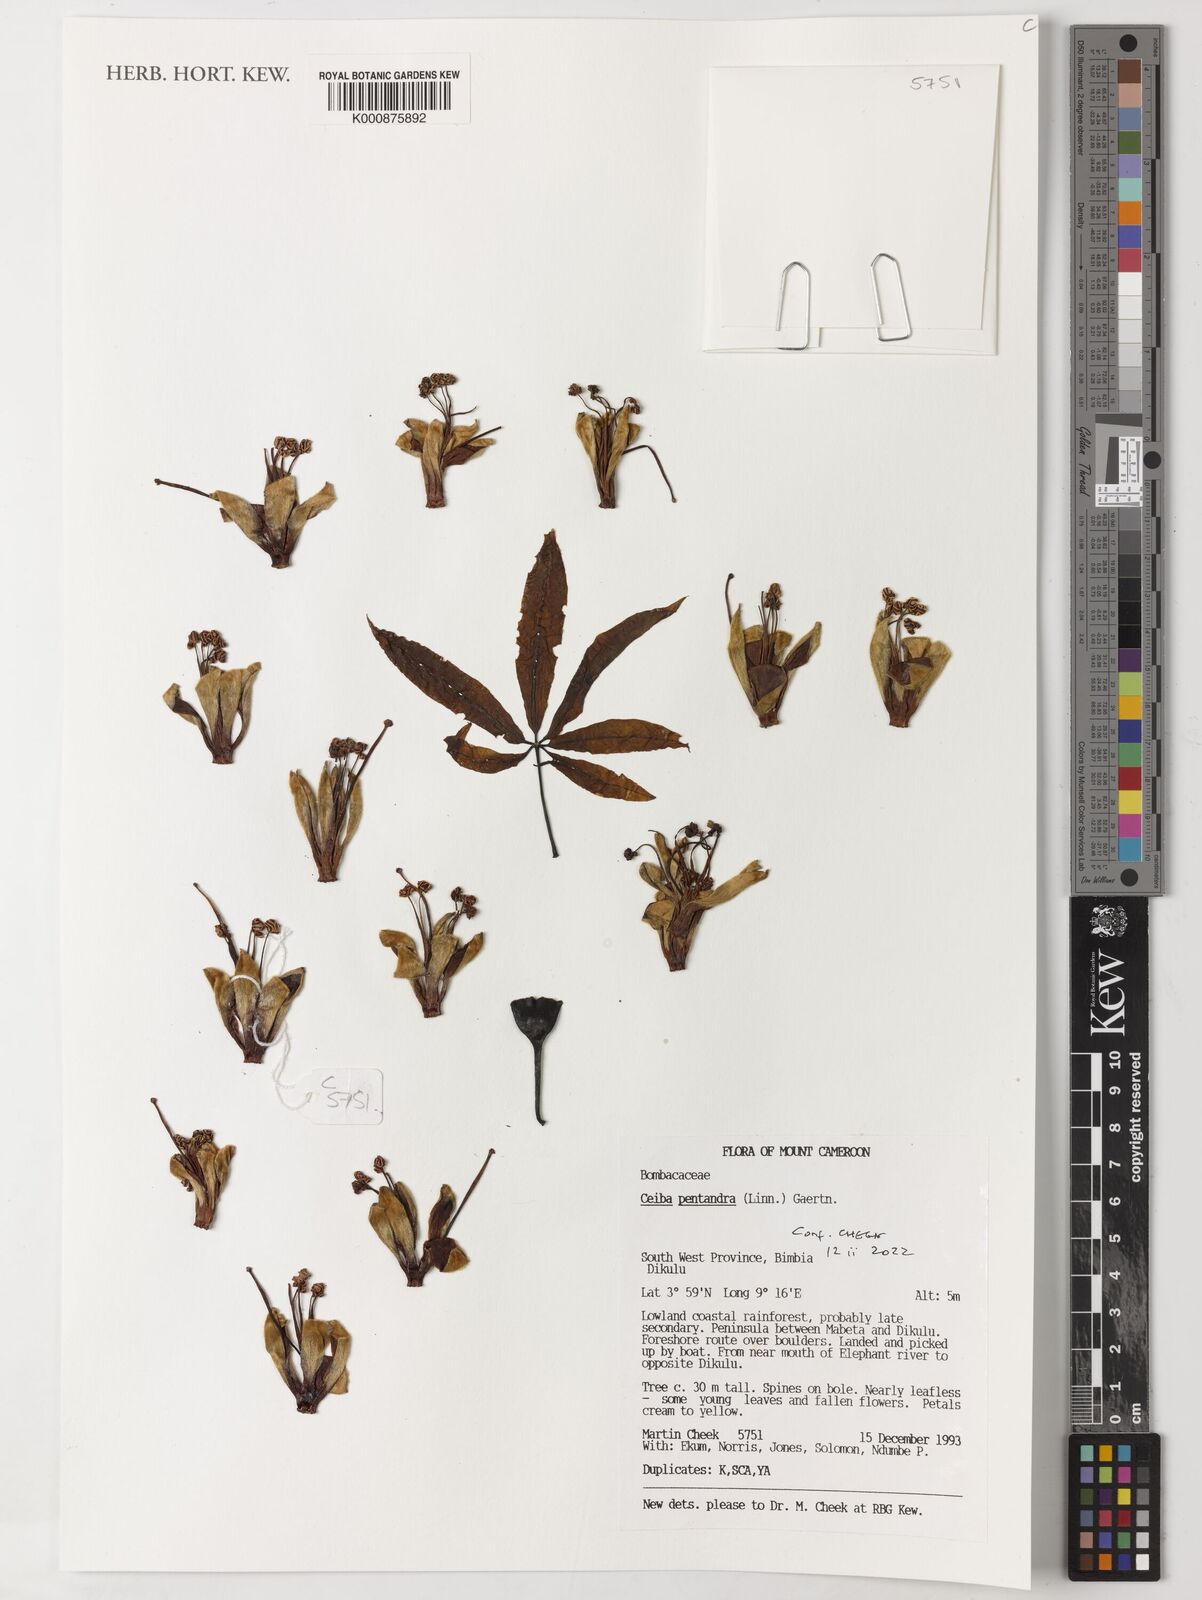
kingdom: Plantae
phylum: Tracheophyta
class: Magnoliopsida
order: Malvales
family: Malvaceae
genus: Ceiba
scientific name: Ceiba pentandra
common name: Kapok
